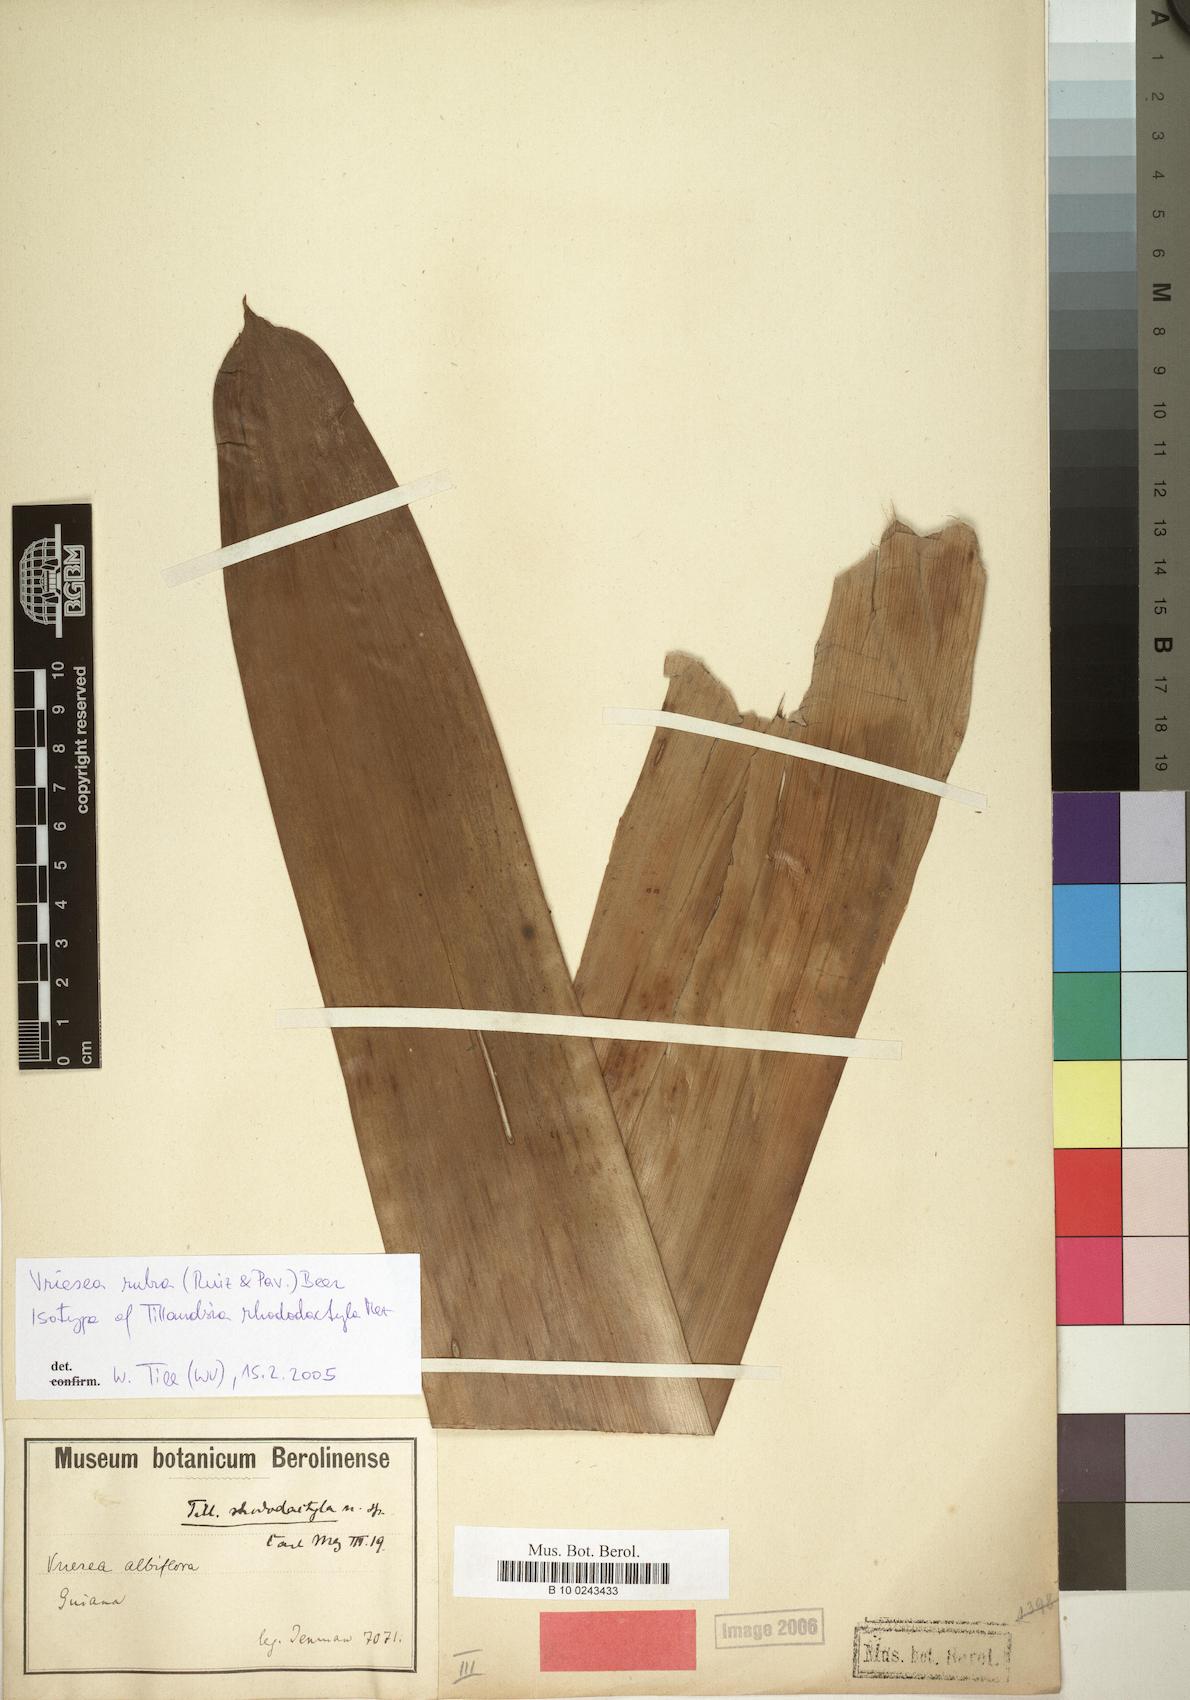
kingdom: Plantae
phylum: Tracheophyta
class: Liliopsida
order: Poales
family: Bromeliaceae
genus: Vriesea
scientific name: Vriesea rubra
